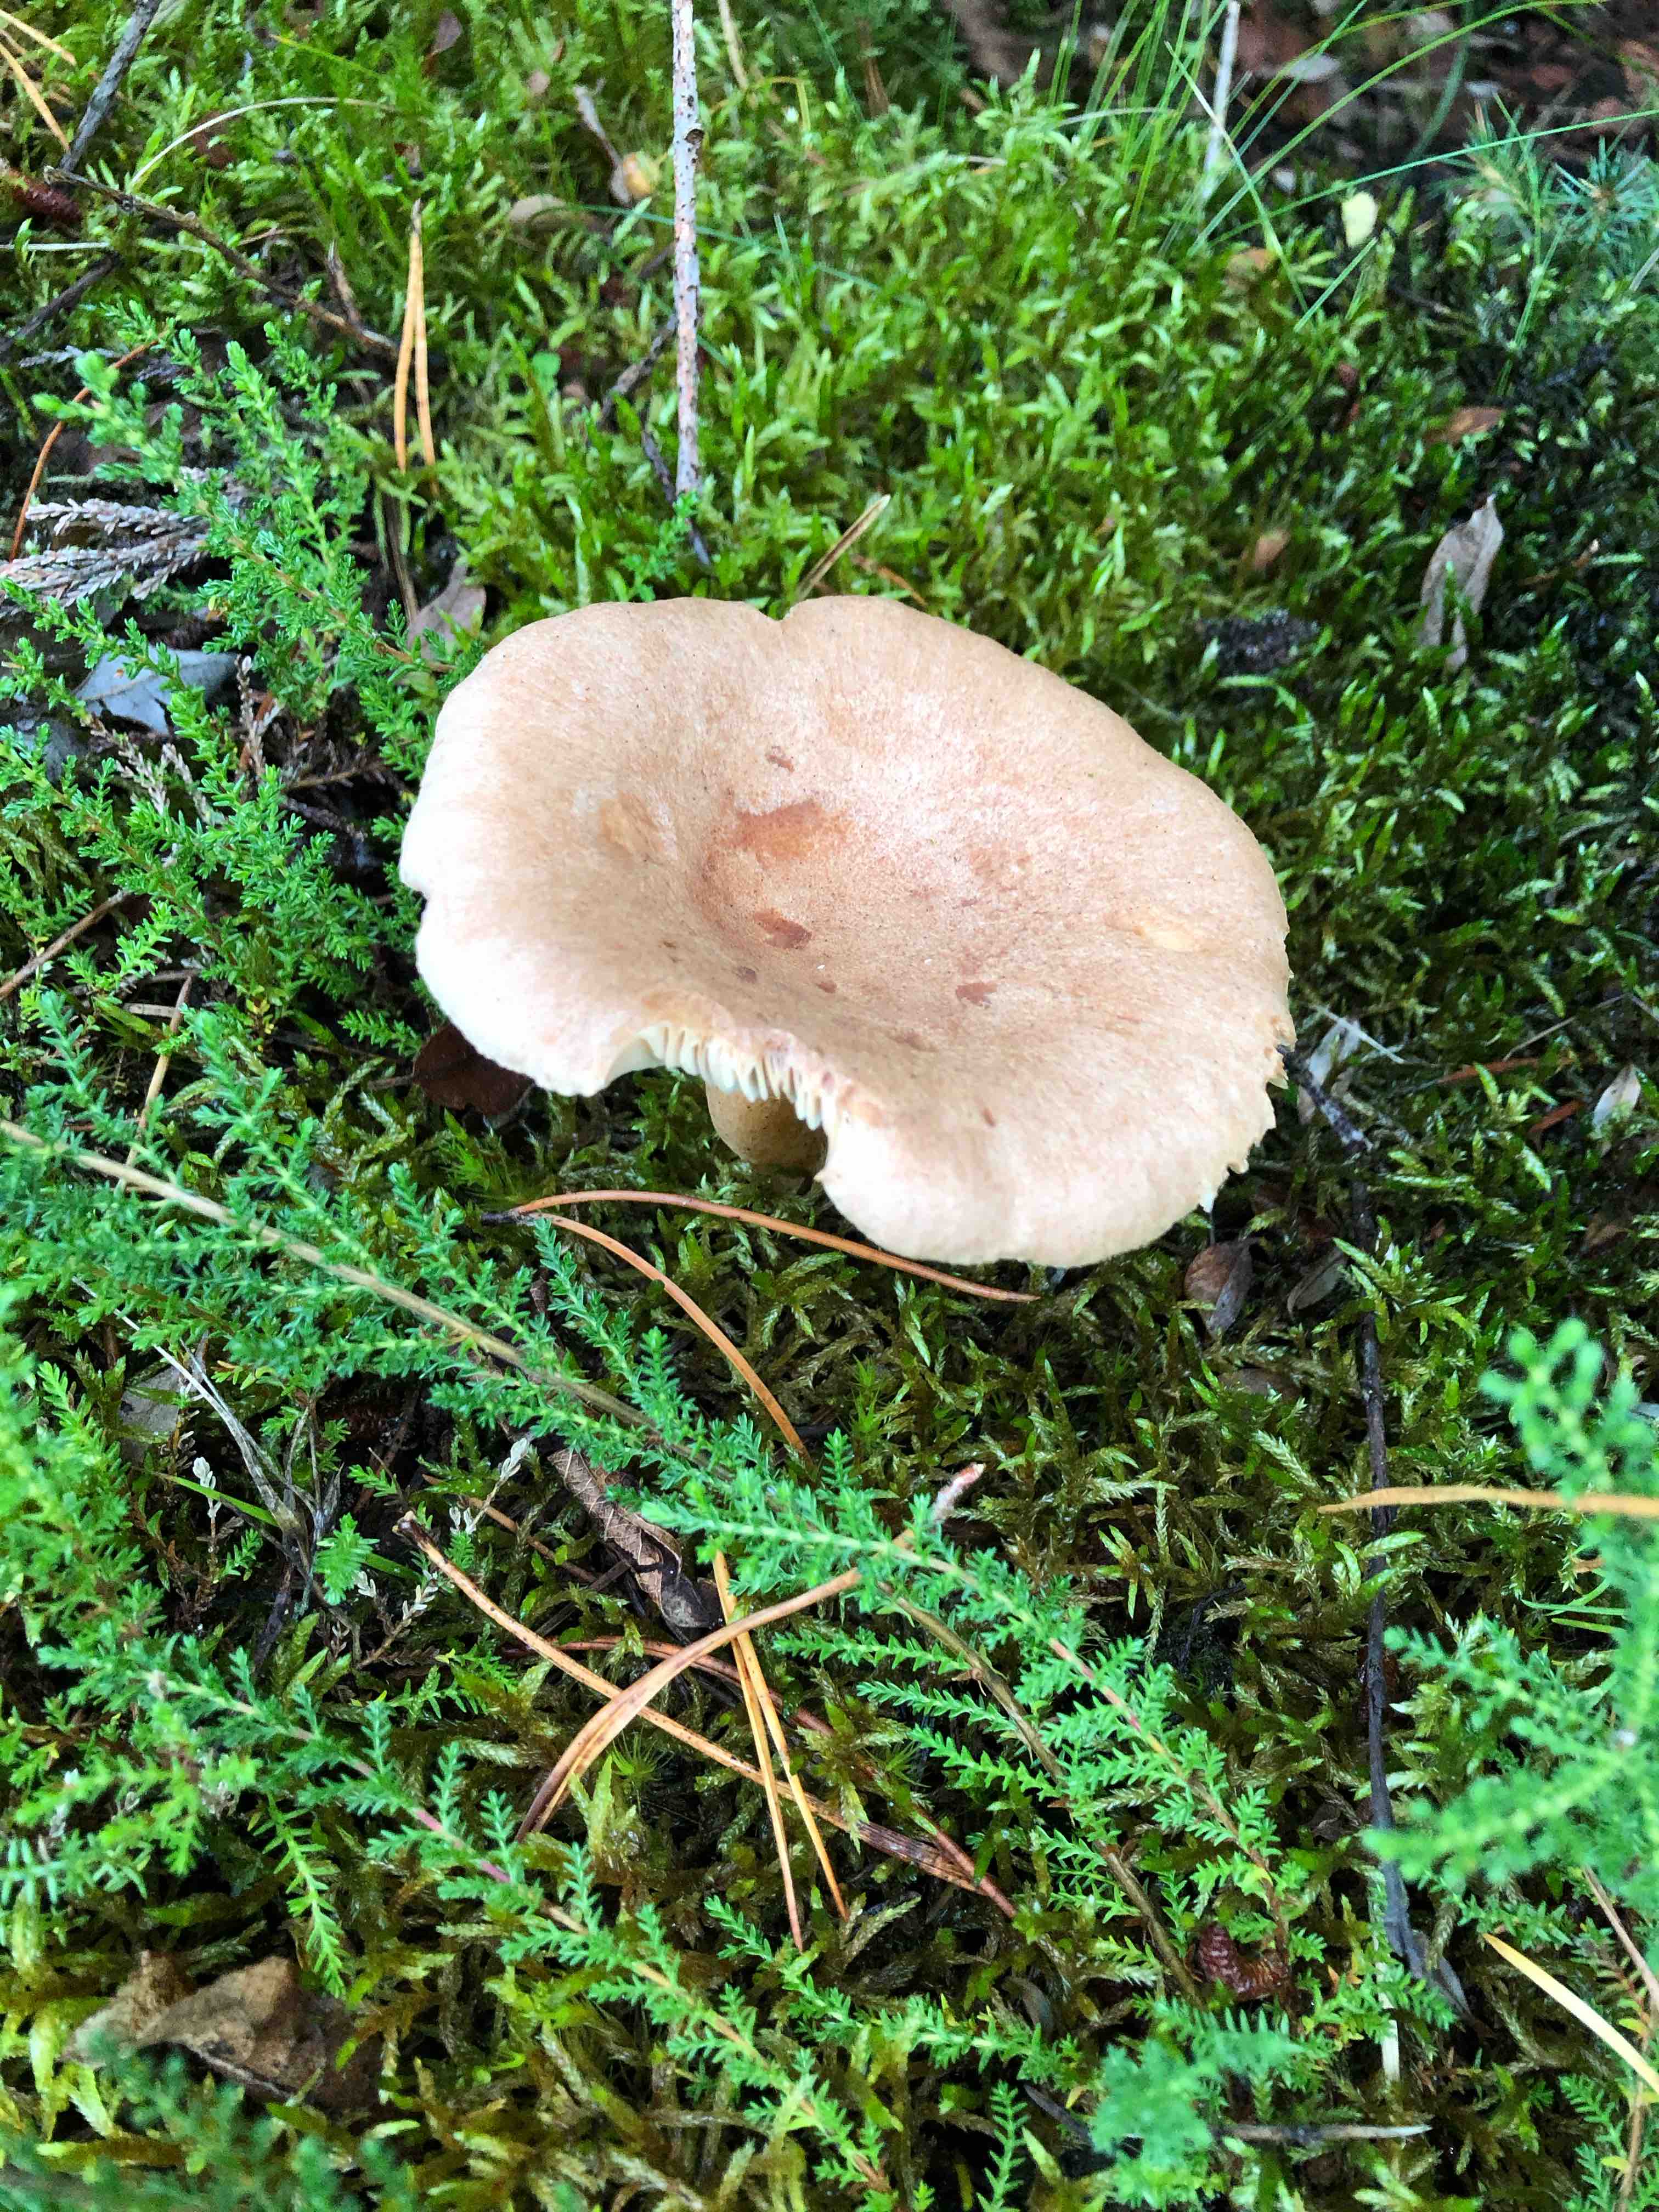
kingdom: Fungi
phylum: Basidiomycota
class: Agaricomycetes
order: Russulales
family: Russulaceae
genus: Lactarius
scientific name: Lactarius helvus
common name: mose-mælkehat
